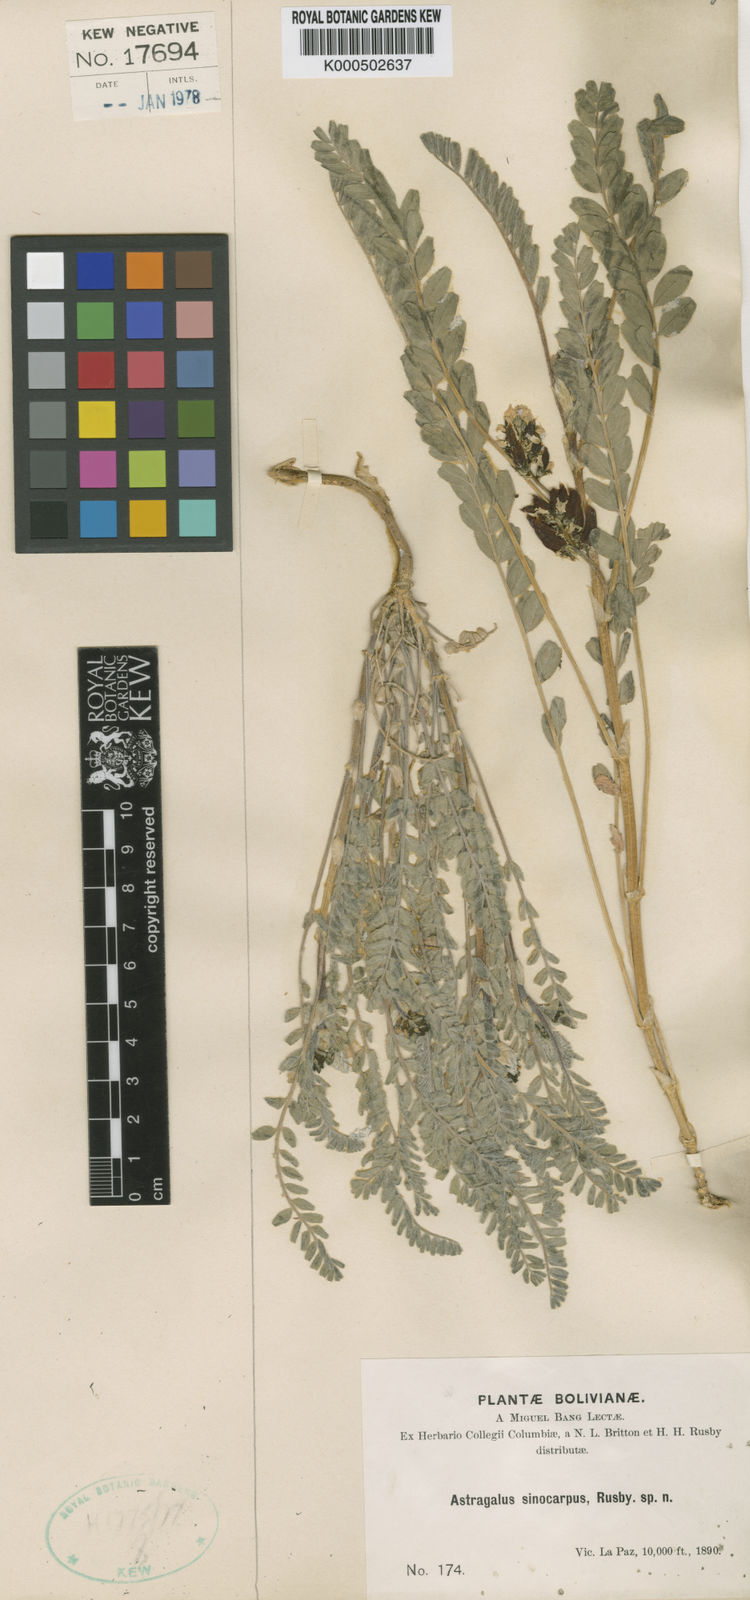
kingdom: Plantae
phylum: Tracheophyta
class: Magnoliopsida
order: Fabales
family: Fabaceae
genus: Astragalus
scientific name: Astragalus arequipensis
